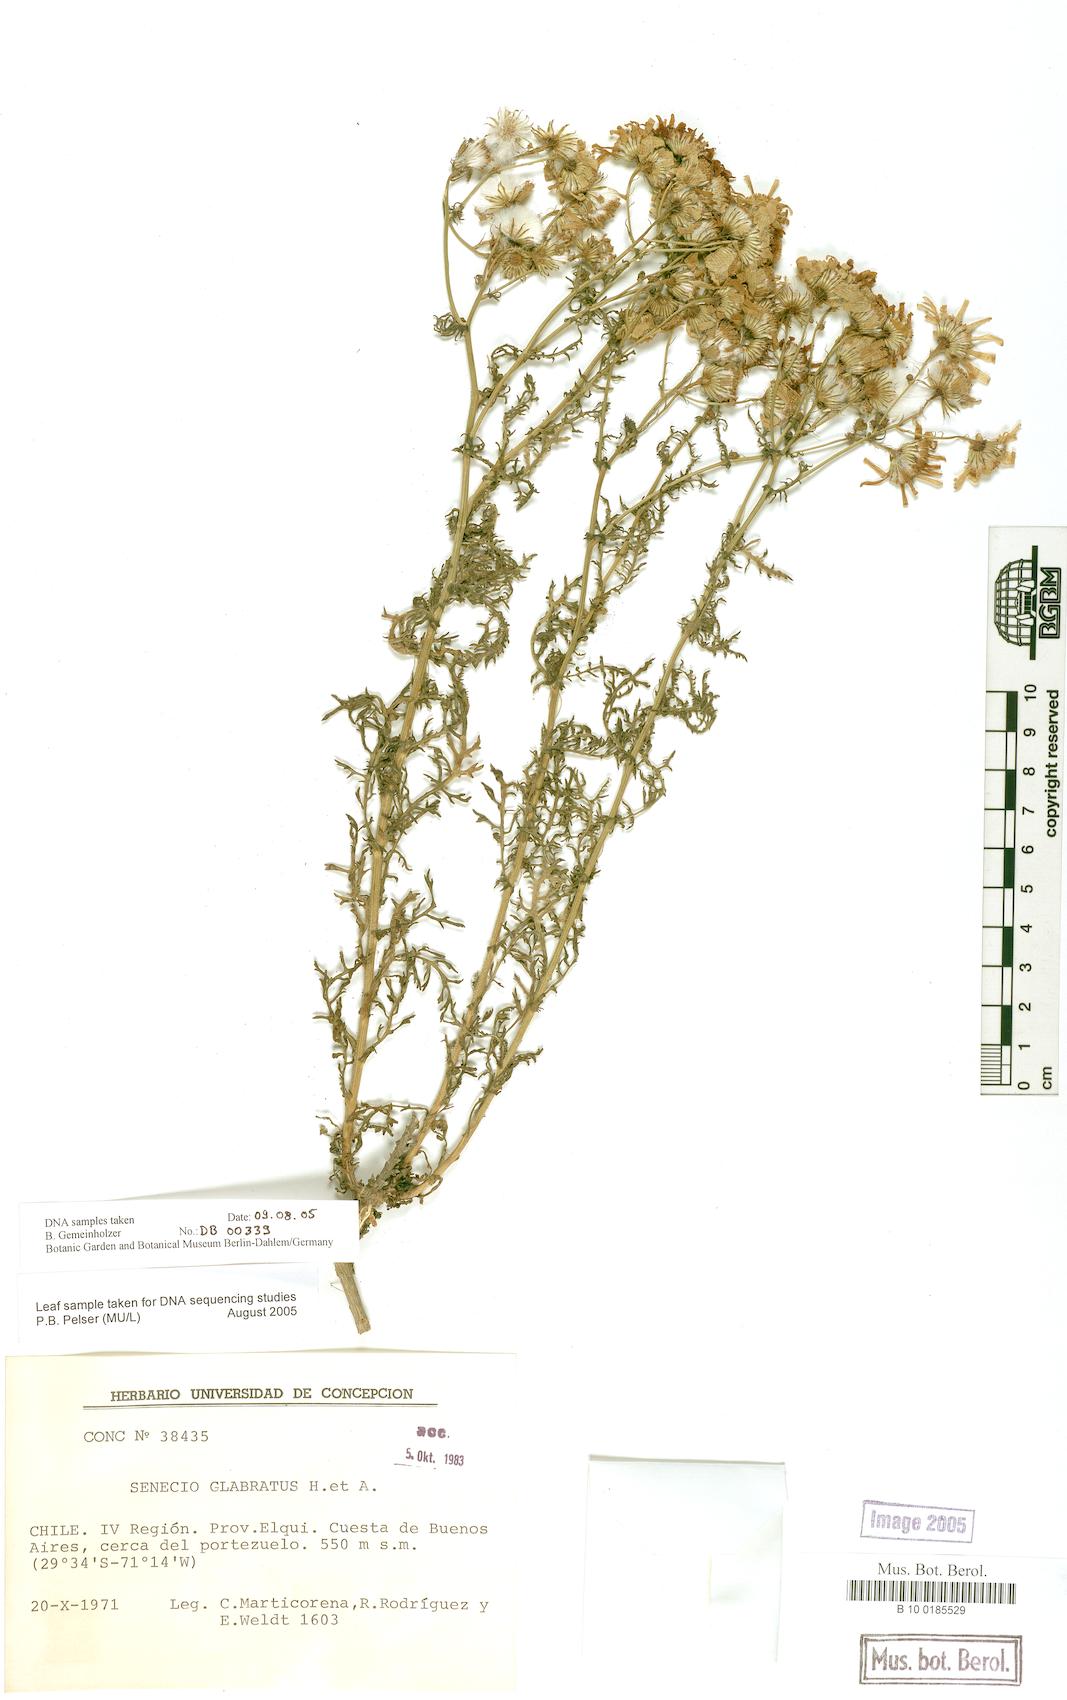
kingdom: Plantae
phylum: Tracheophyta
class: Magnoliopsida
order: Asterales
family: Asteraceae
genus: Senecio
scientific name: Senecio glabratus
